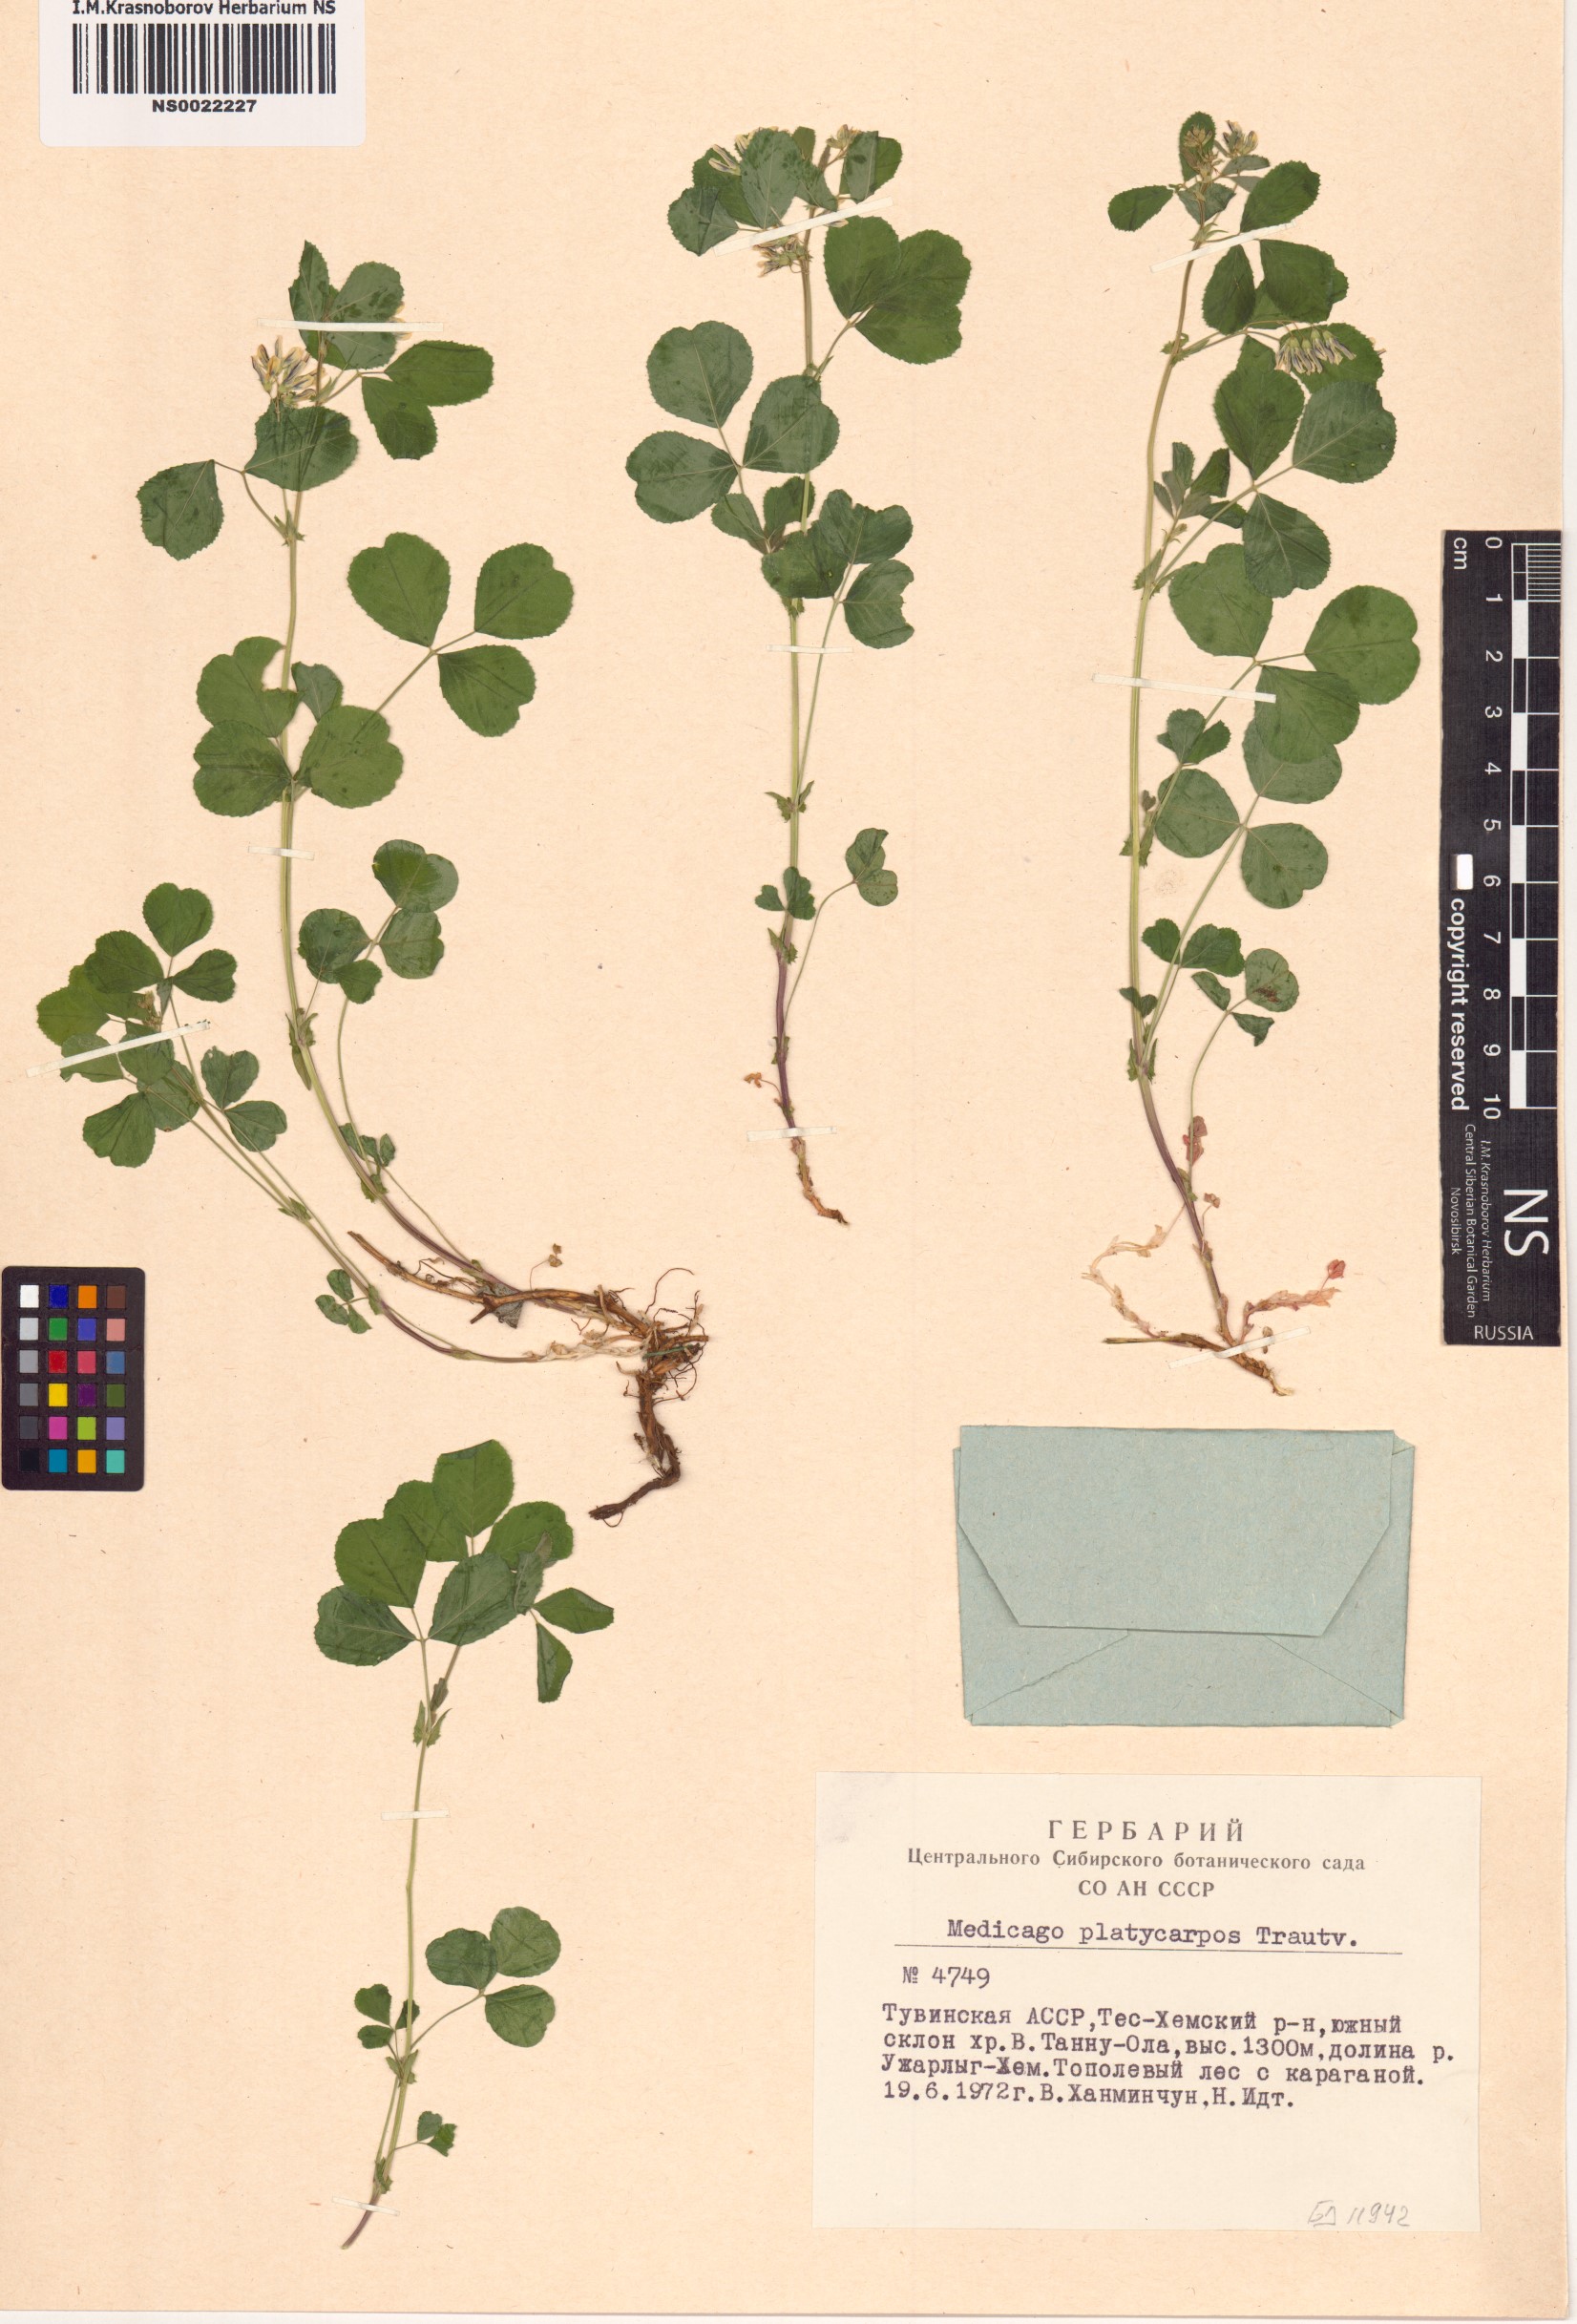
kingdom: Plantae
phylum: Tracheophyta
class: Magnoliopsida
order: Fabales
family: Fabaceae
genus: Medicago
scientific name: Medicago platycarpos
